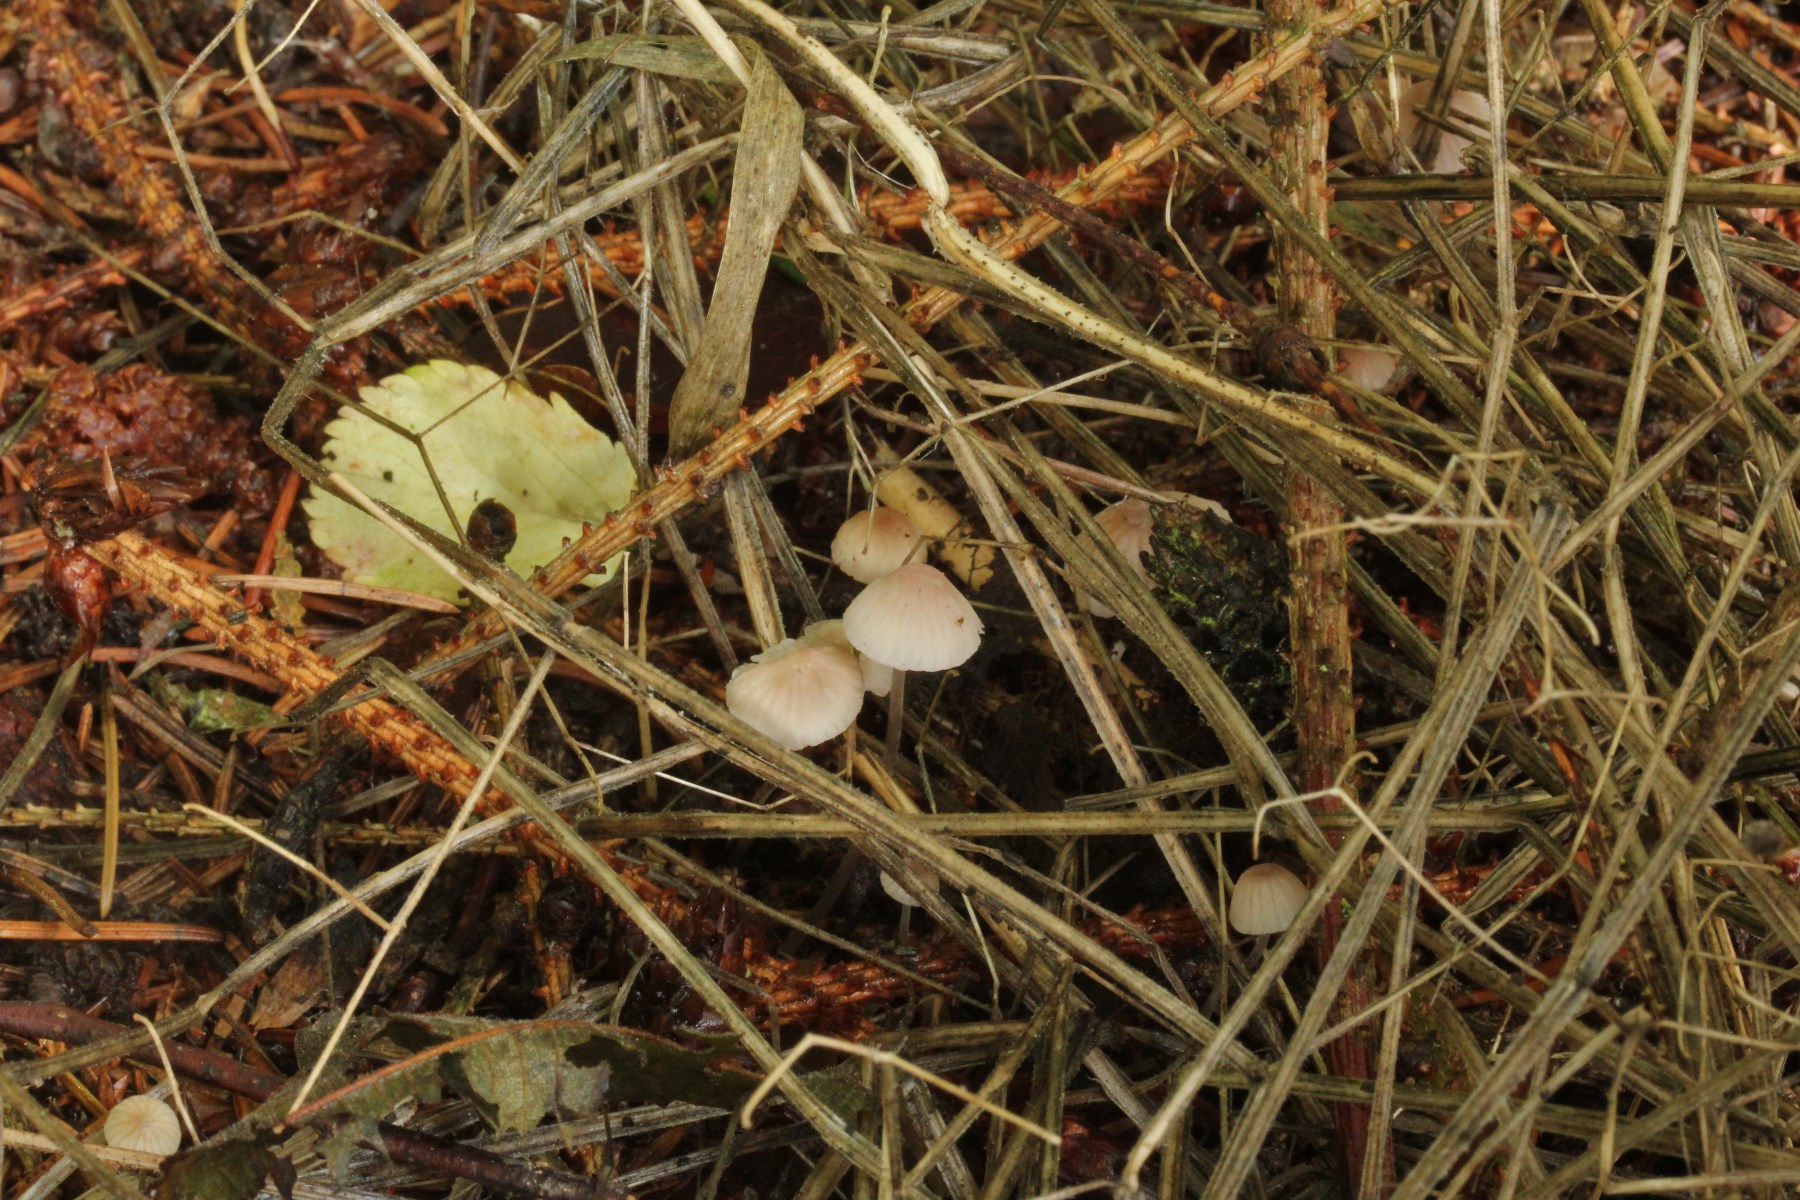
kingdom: Fungi
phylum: Basidiomycota
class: Agaricomycetes
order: Agaricales
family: Mycenaceae
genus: Mycena
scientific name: Mycena metata
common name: rødlig huesvamp
